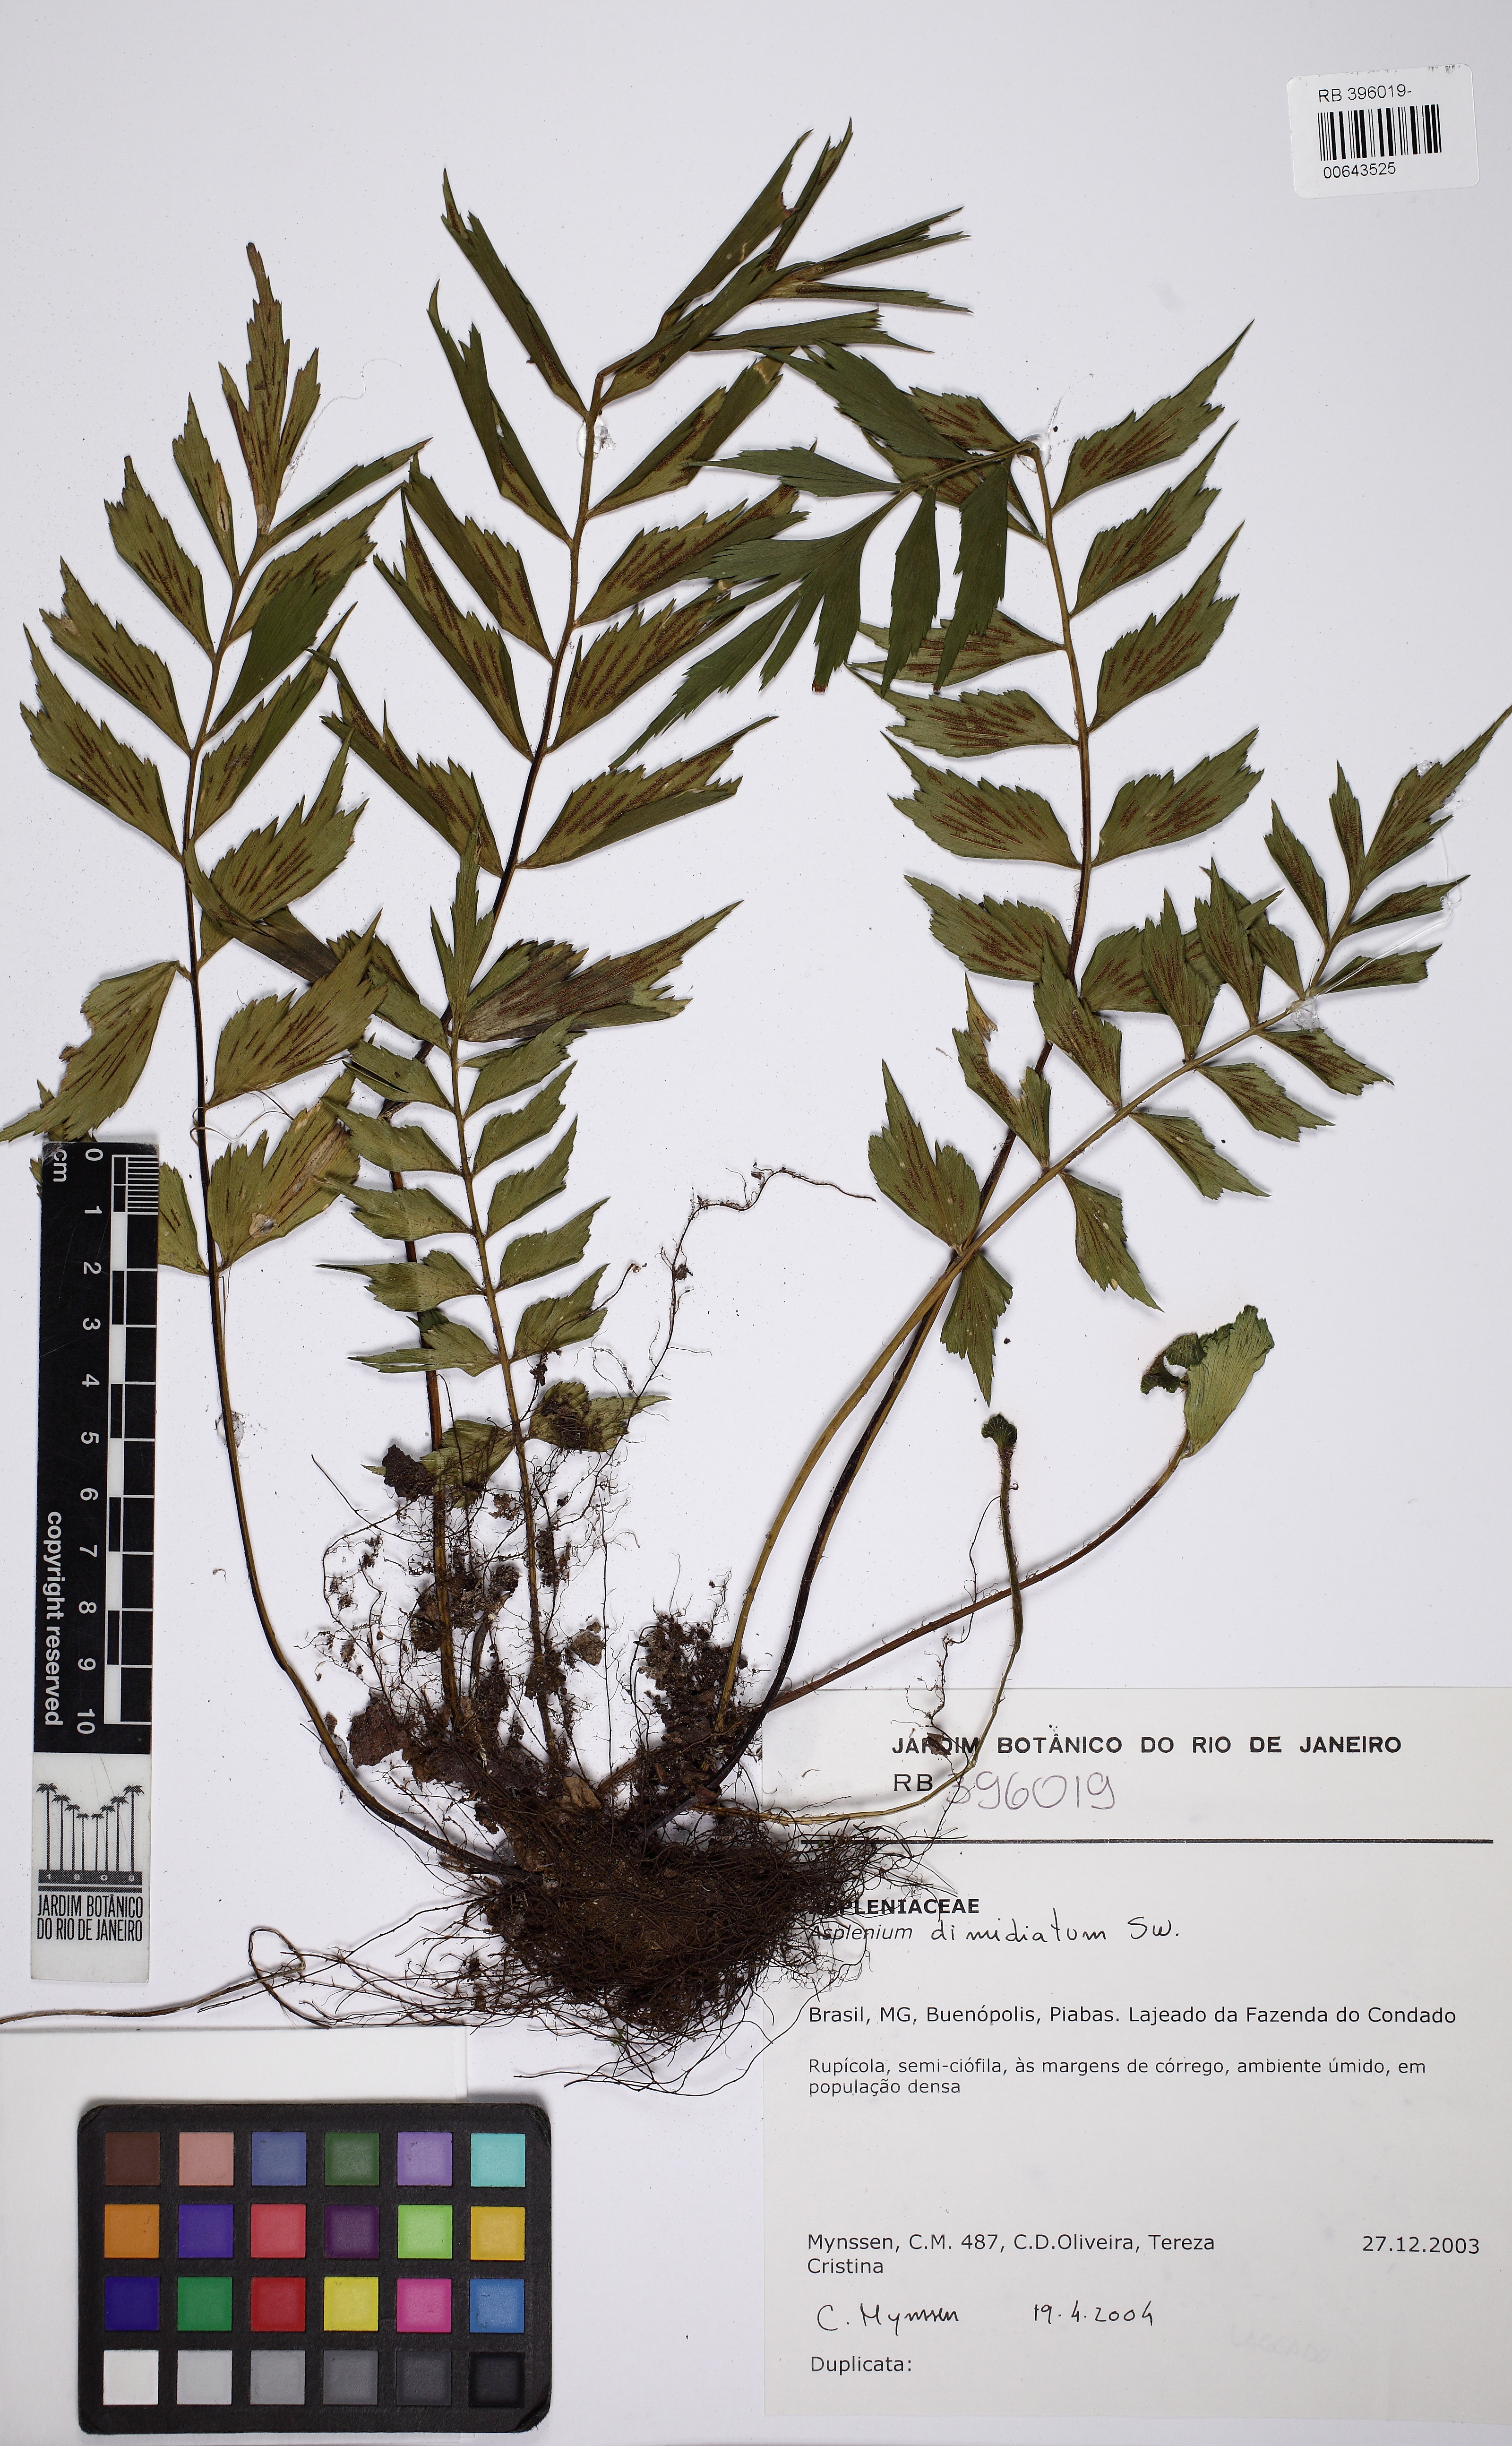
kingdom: Plantae
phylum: Tracheophyta
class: Polypodiopsida
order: Polypodiales
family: Aspleniaceae
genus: Asplenium
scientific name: Asplenium dimidiatum
